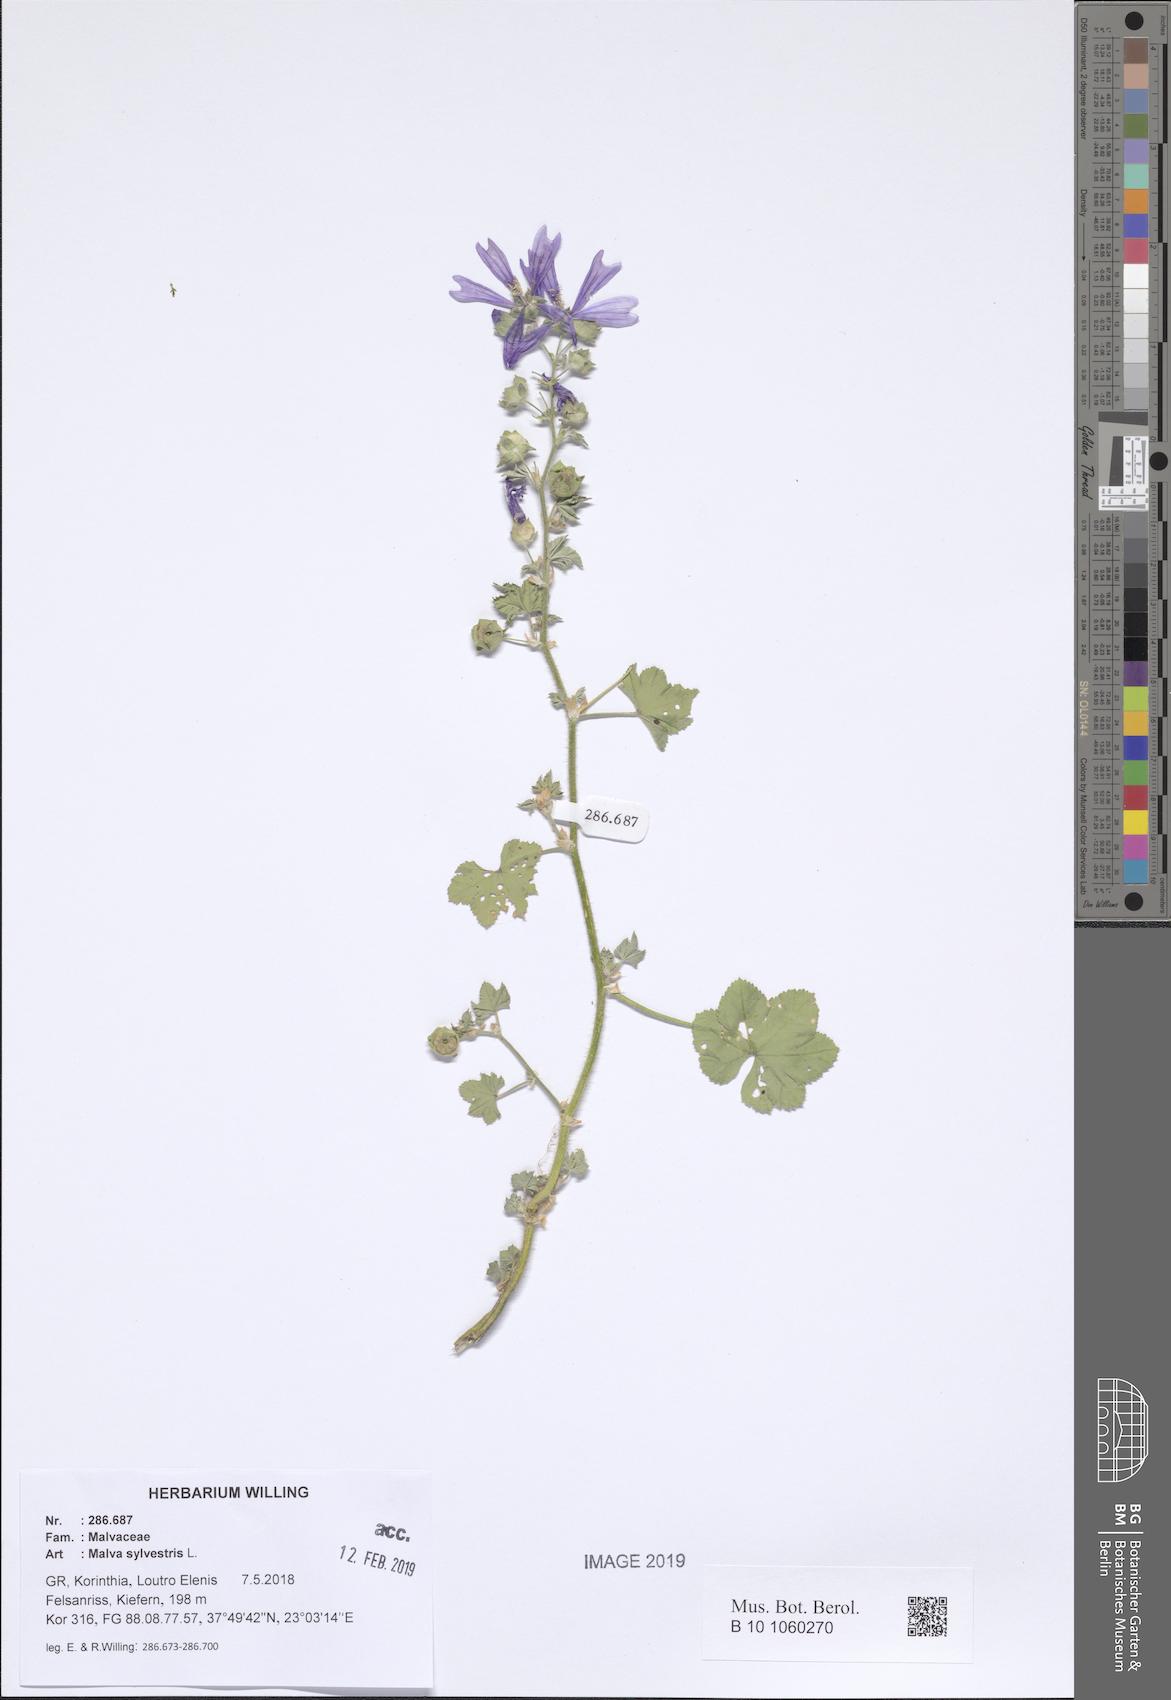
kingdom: Plantae
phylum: Tracheophyta
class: Magnoliopsida
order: Malvales
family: Malvaceae
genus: Malva
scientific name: Malva sylvestris
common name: Common mallow
